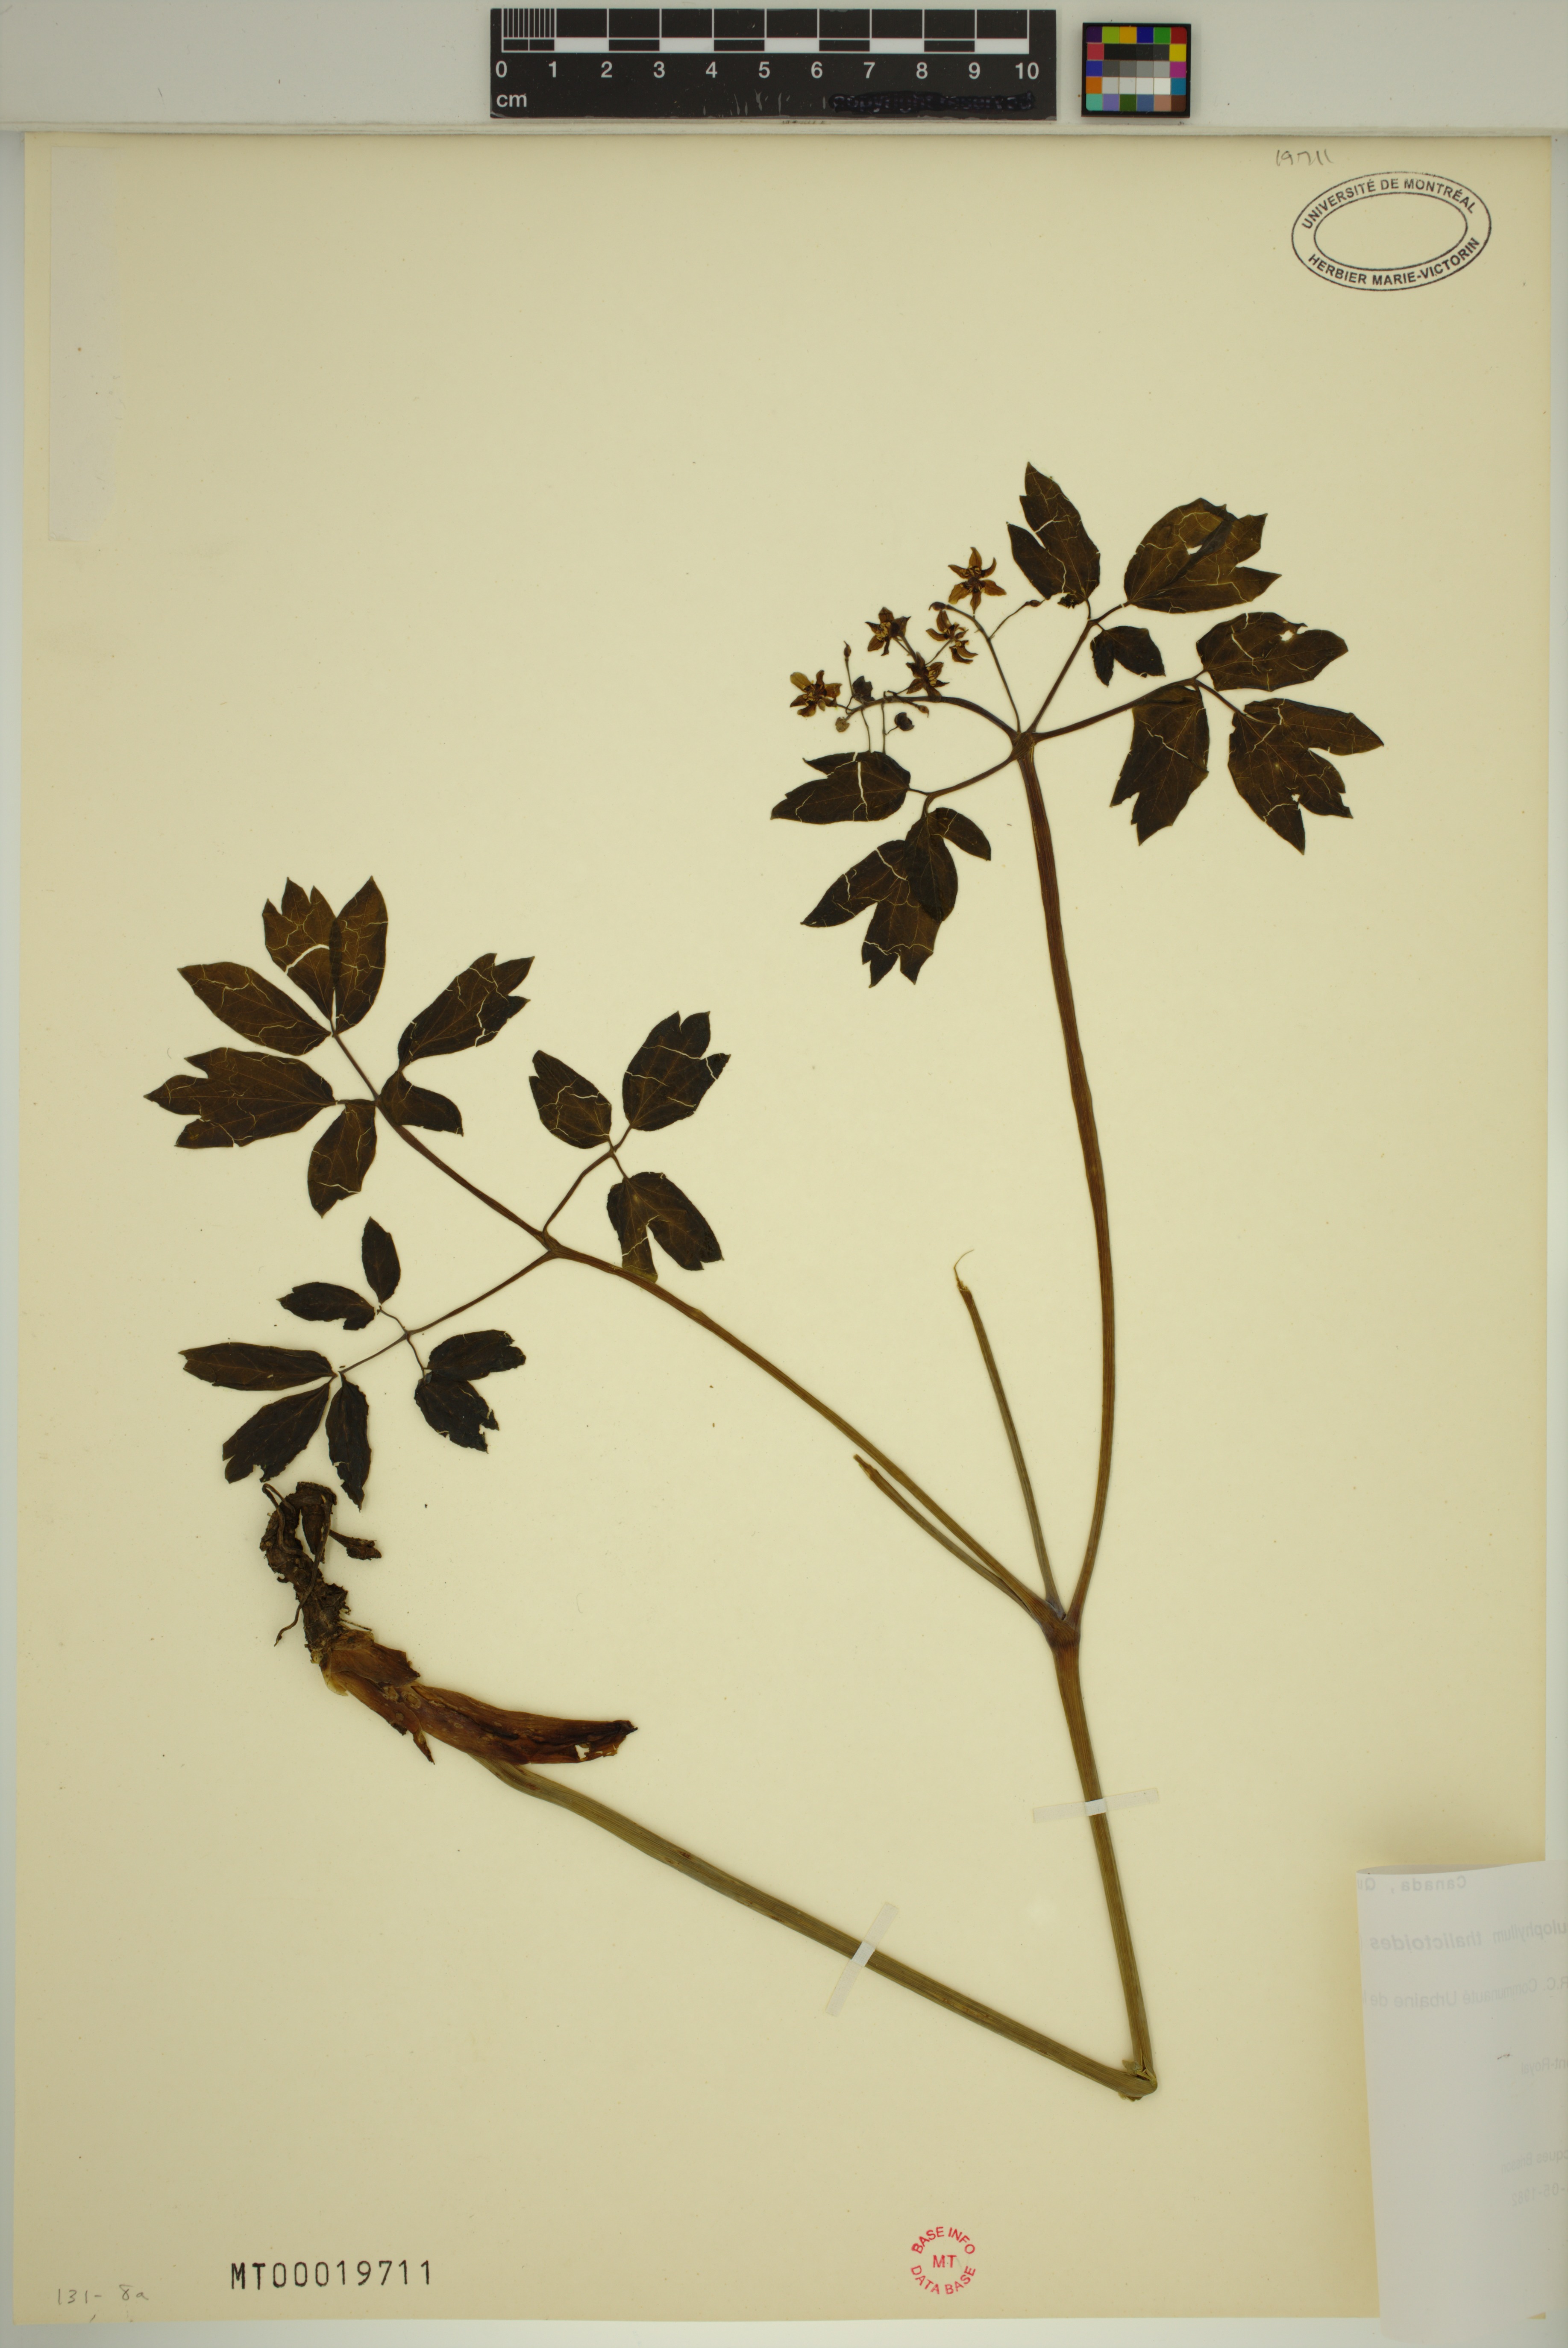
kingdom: Plantae
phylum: Tracheophyta
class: Magnoliopsida
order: Ranunculales
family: Berberidaceae
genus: Caulophyllum
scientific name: Caulophyllum thalictroides
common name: Blue cohosh
